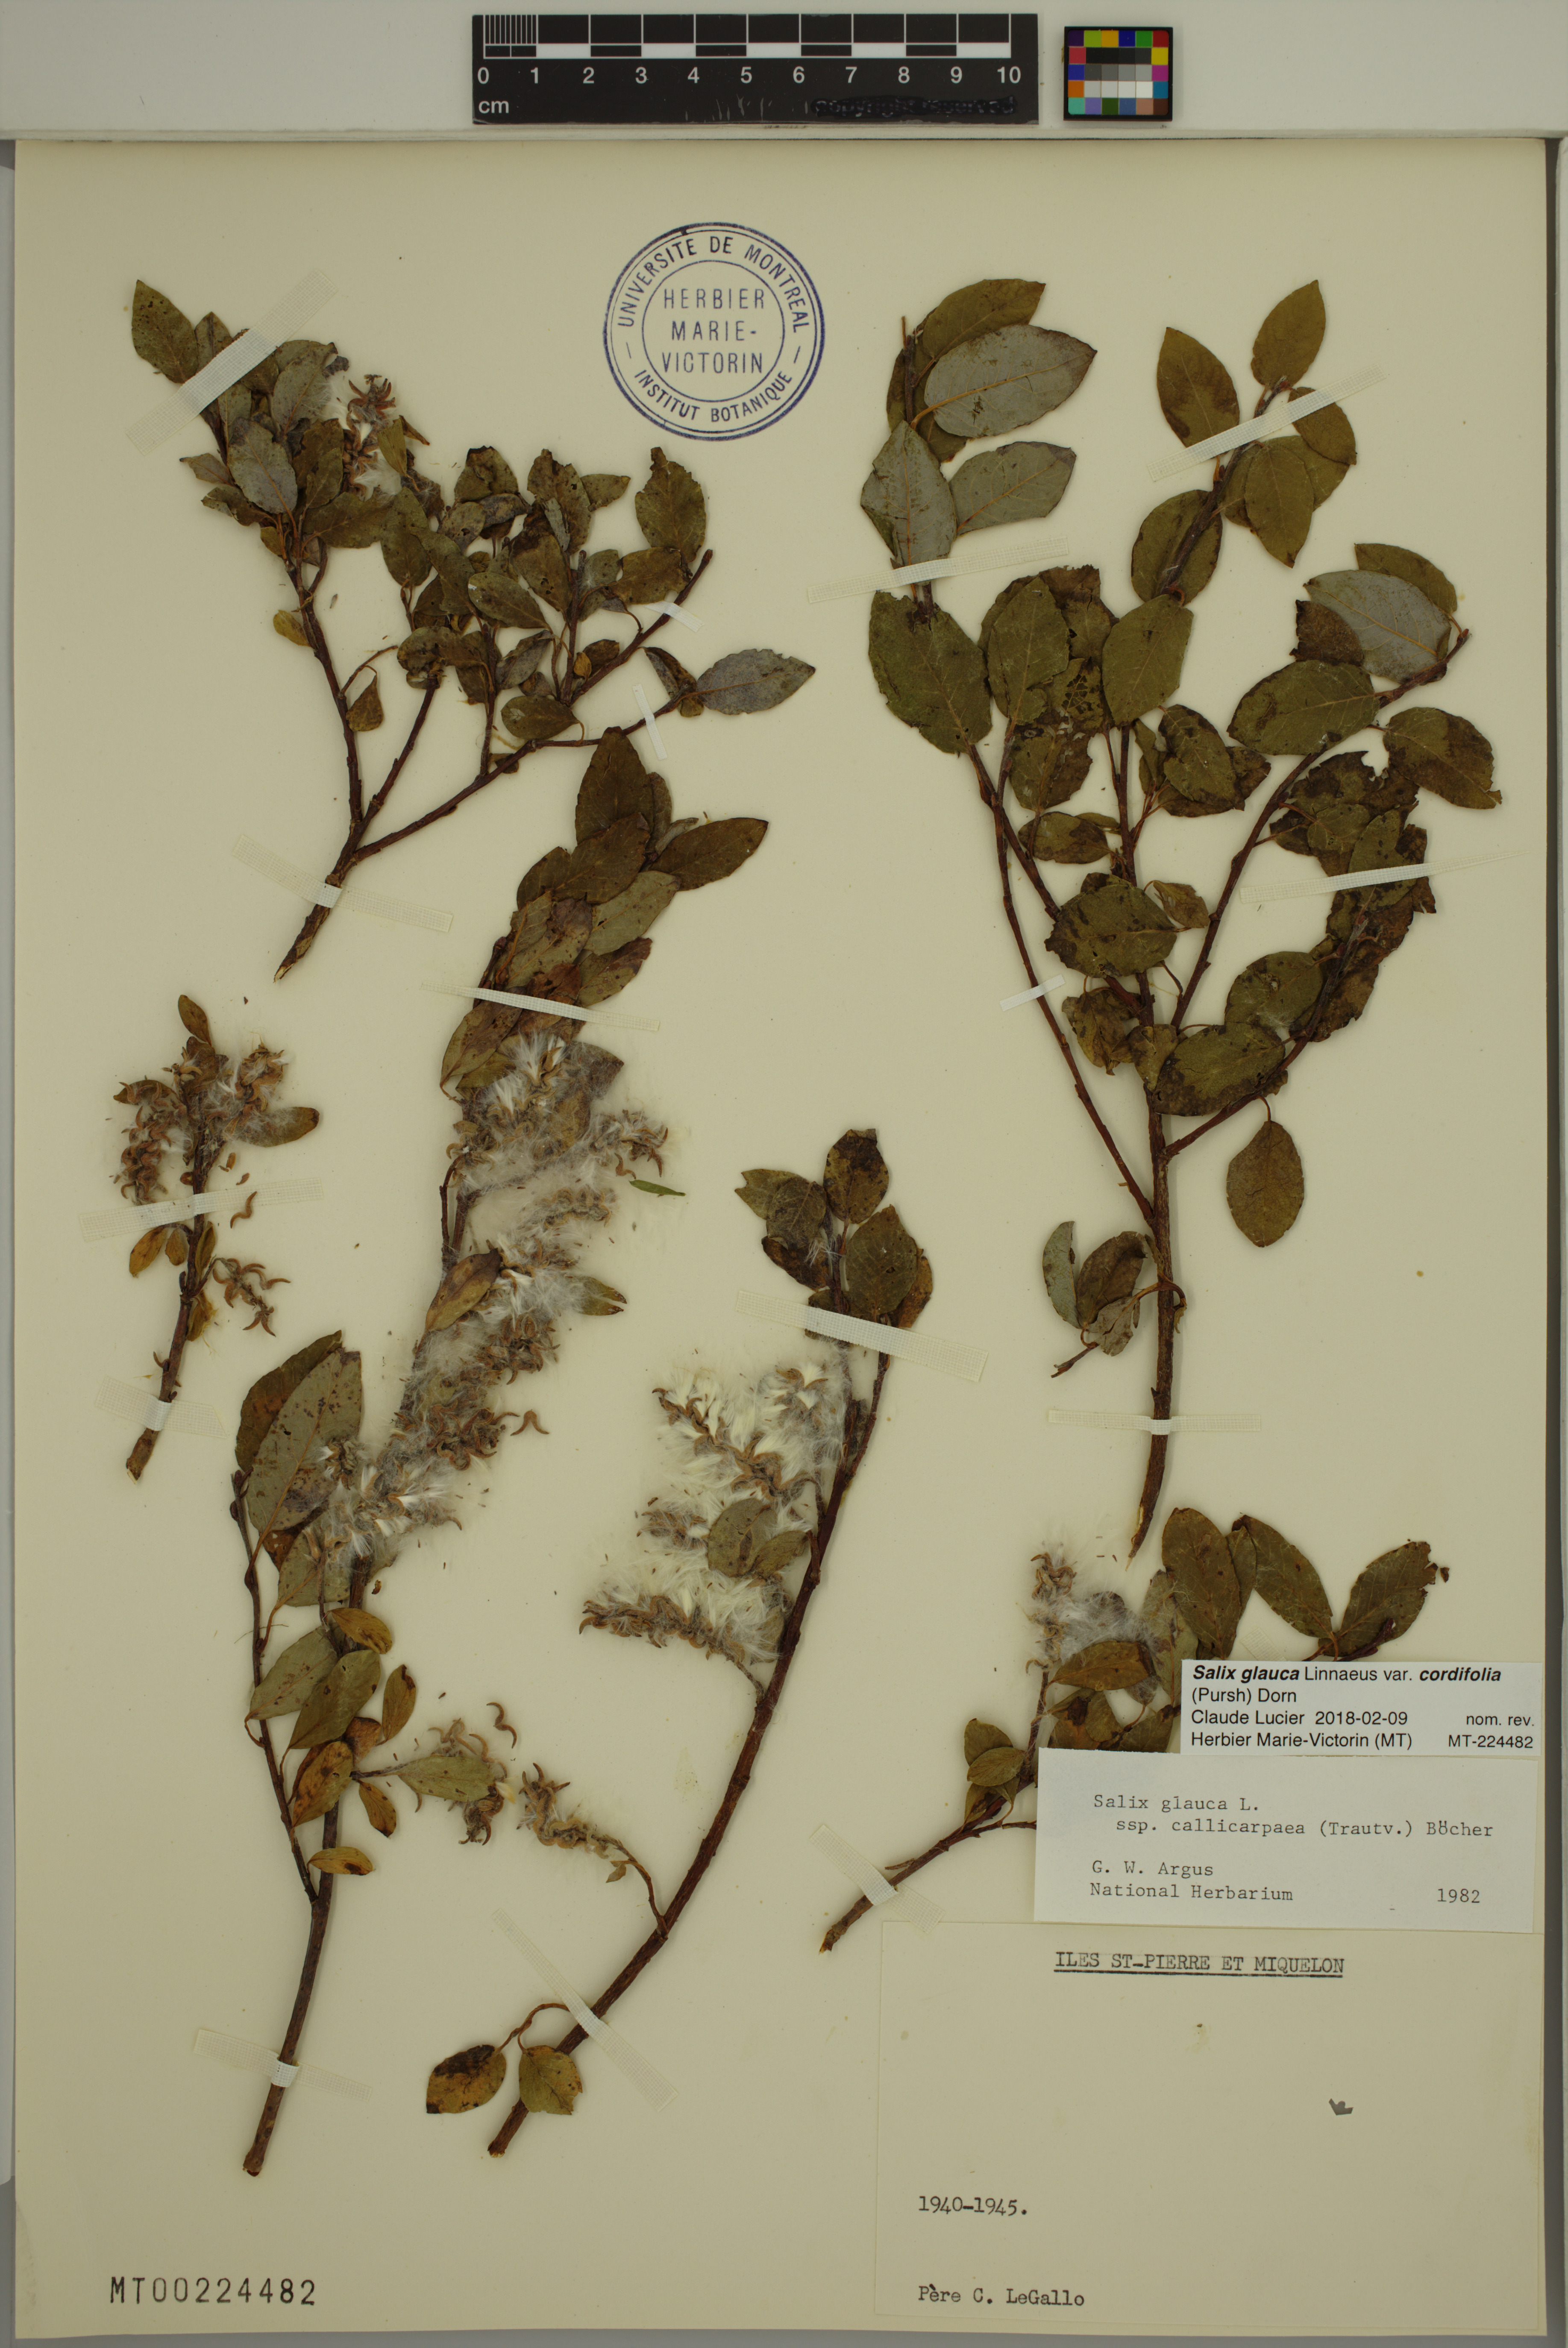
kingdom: Plantae
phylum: Tracheophyta
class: Magnoliopsida
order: Malpighiales
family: Salicaceae
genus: Salix
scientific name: Salix glauca
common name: Glaucous willow
